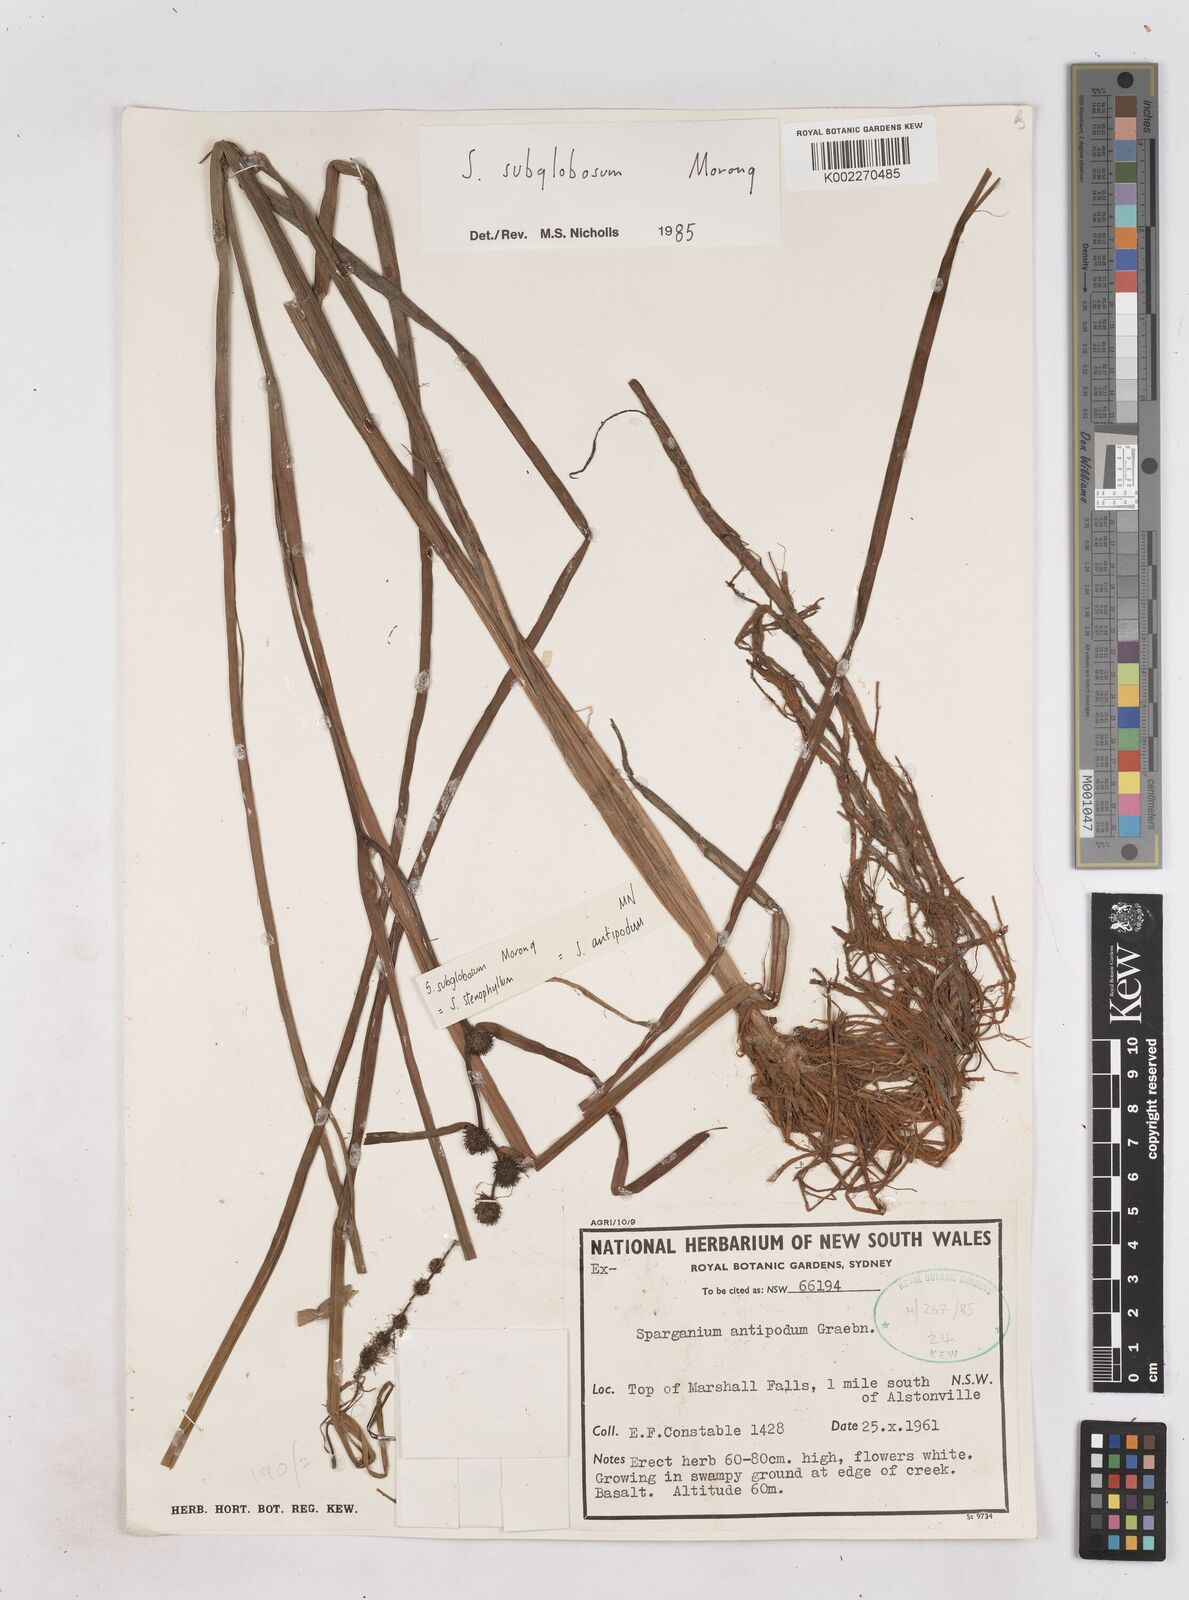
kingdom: Plantae
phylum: Tracheophyta
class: Liliopsida
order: Poales
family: Typhaceae
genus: Sparganium
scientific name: Sparganium subglobosum
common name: Burr­-reed
